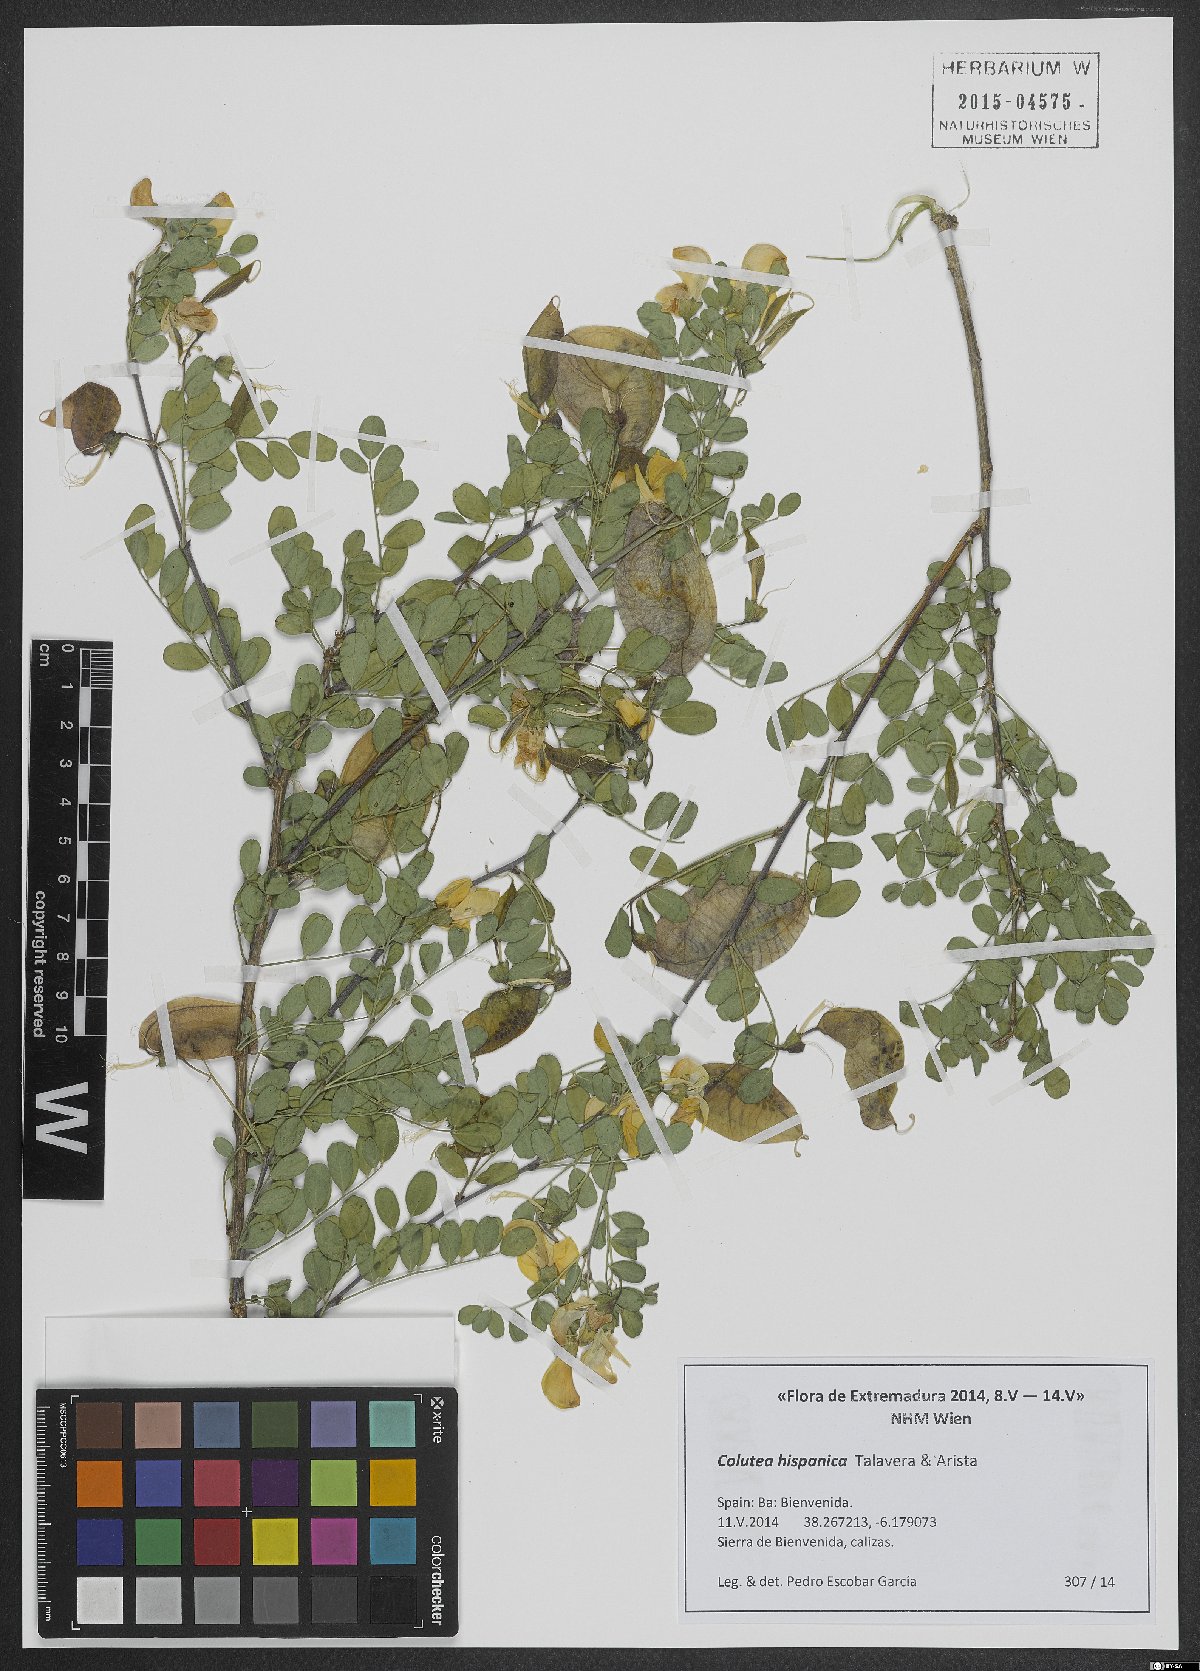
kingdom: Plantae
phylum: Tracheophyta
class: Magnoliopsida
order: Fabales
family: Fabaceae
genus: Colutea
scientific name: Colutea arborescens
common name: Bladder-senna
